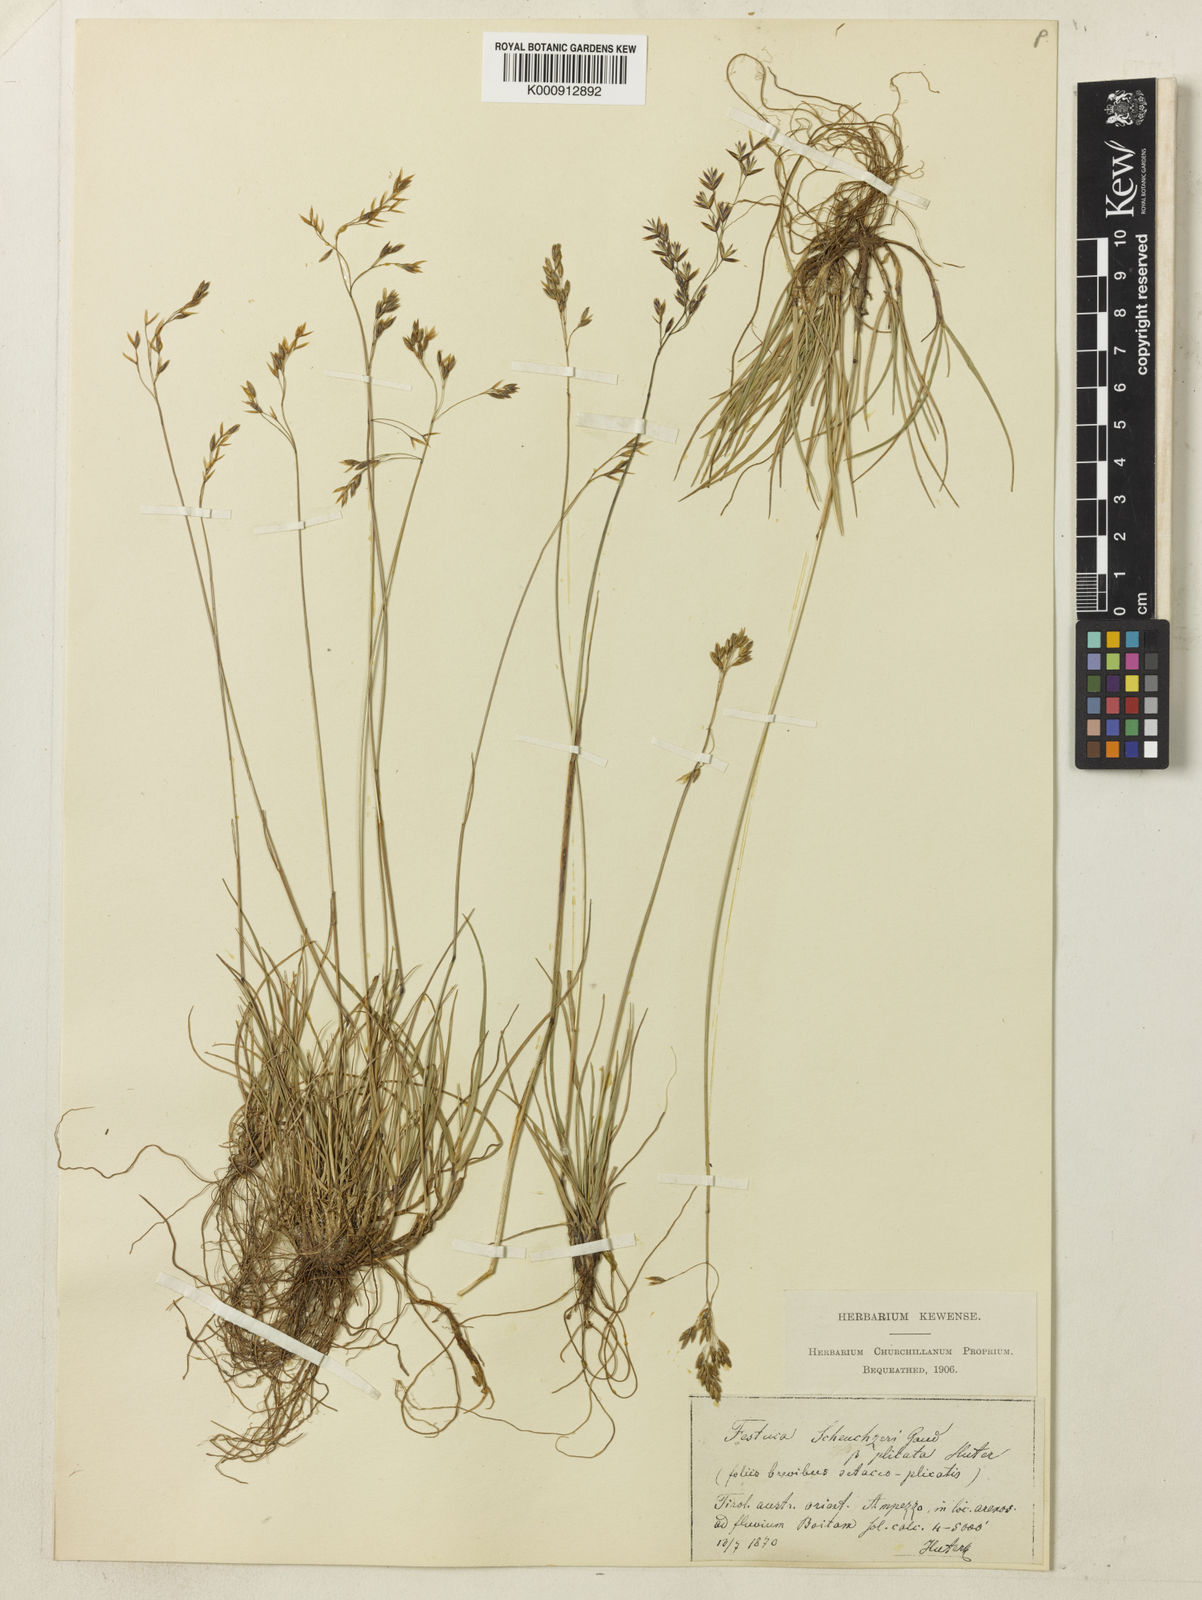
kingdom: Plantae
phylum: Tracheophyta
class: Liliopsida
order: Poales
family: Poaceae
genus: Festuca
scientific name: Festuca pulchella
